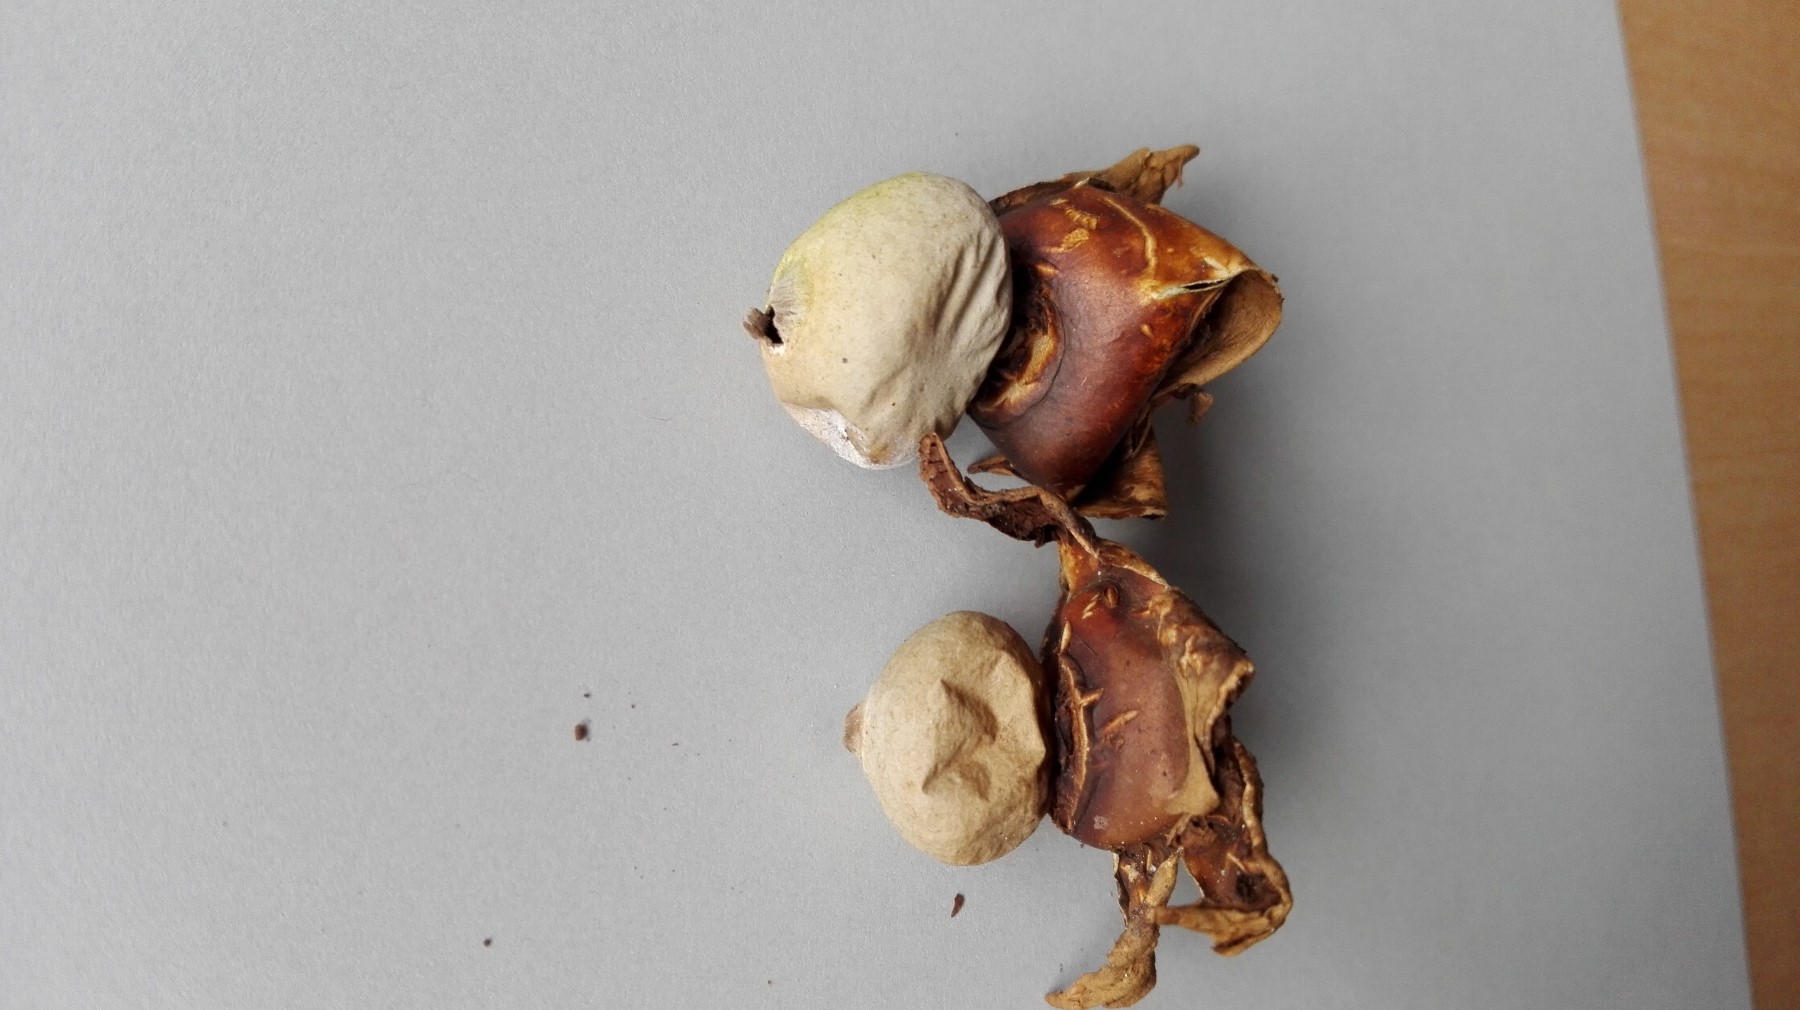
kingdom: Fungi
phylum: Basidiomycota
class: Agaricomycetes
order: Geastrales
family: Geastraceae
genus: Geastrum
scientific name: Geastrum michelianum
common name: kødet stjernebold
